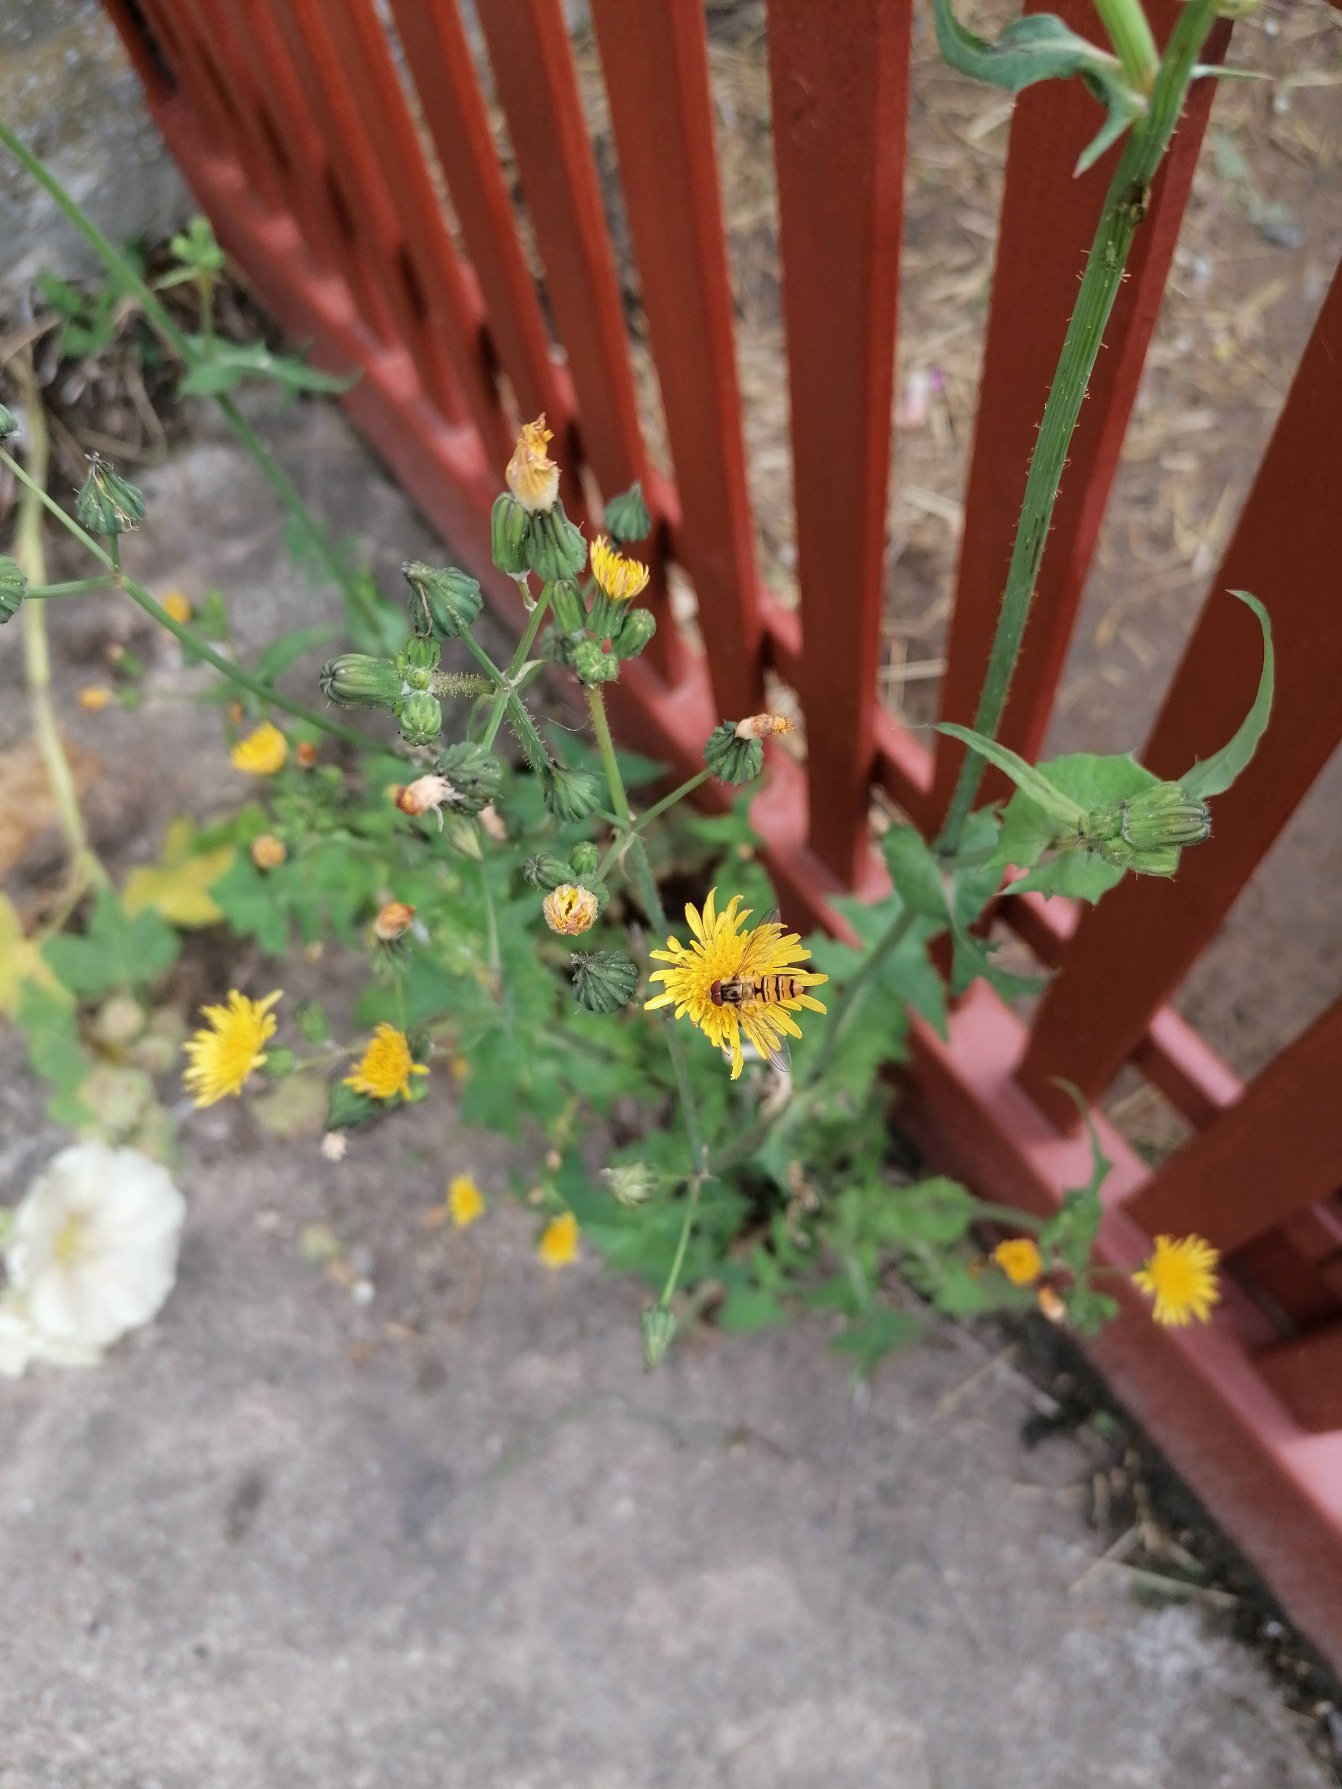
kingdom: Plantae
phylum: Tracheophyta
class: Magnoliopsida
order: Asterales
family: Asteraceae
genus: Sonchus
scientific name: Sonchus oleraceus
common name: Almindelig svinemælk
